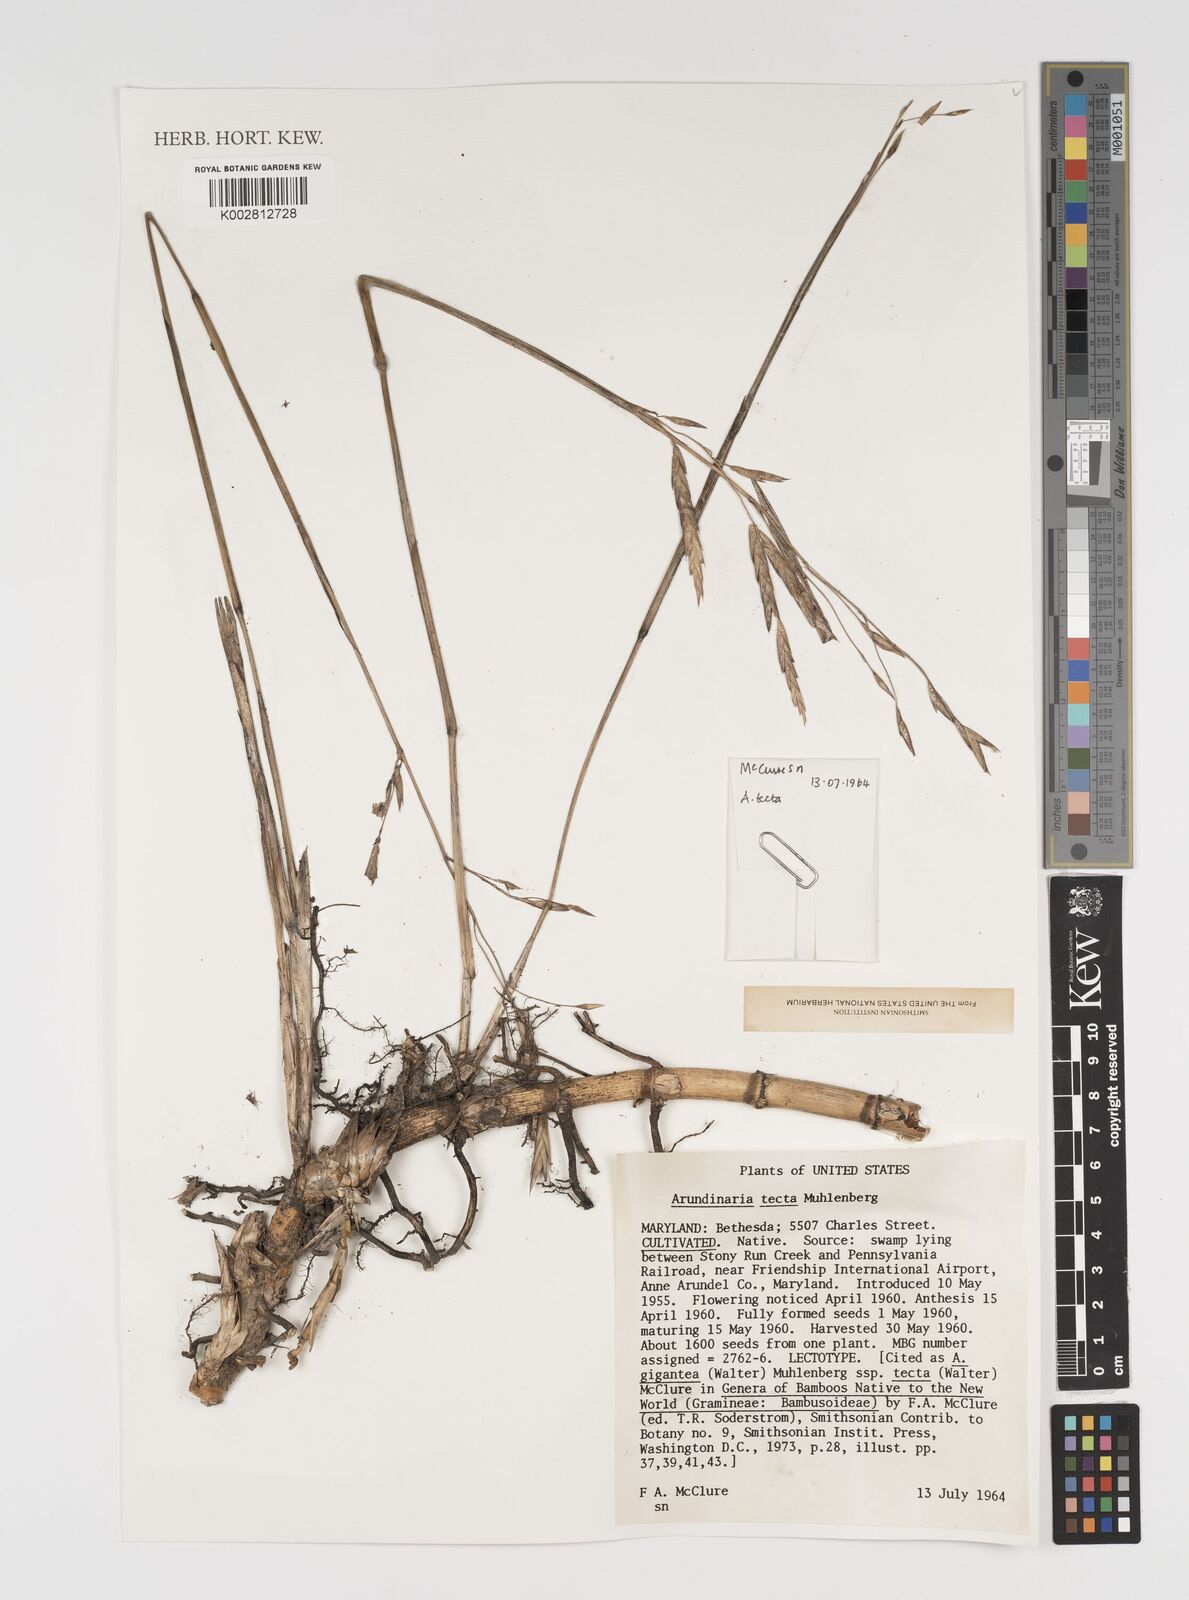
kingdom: Plantae
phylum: Tracheophyta
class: Liliopsida
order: Poales
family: Poaceae
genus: Arundinaria
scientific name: Arundinaria tecta
